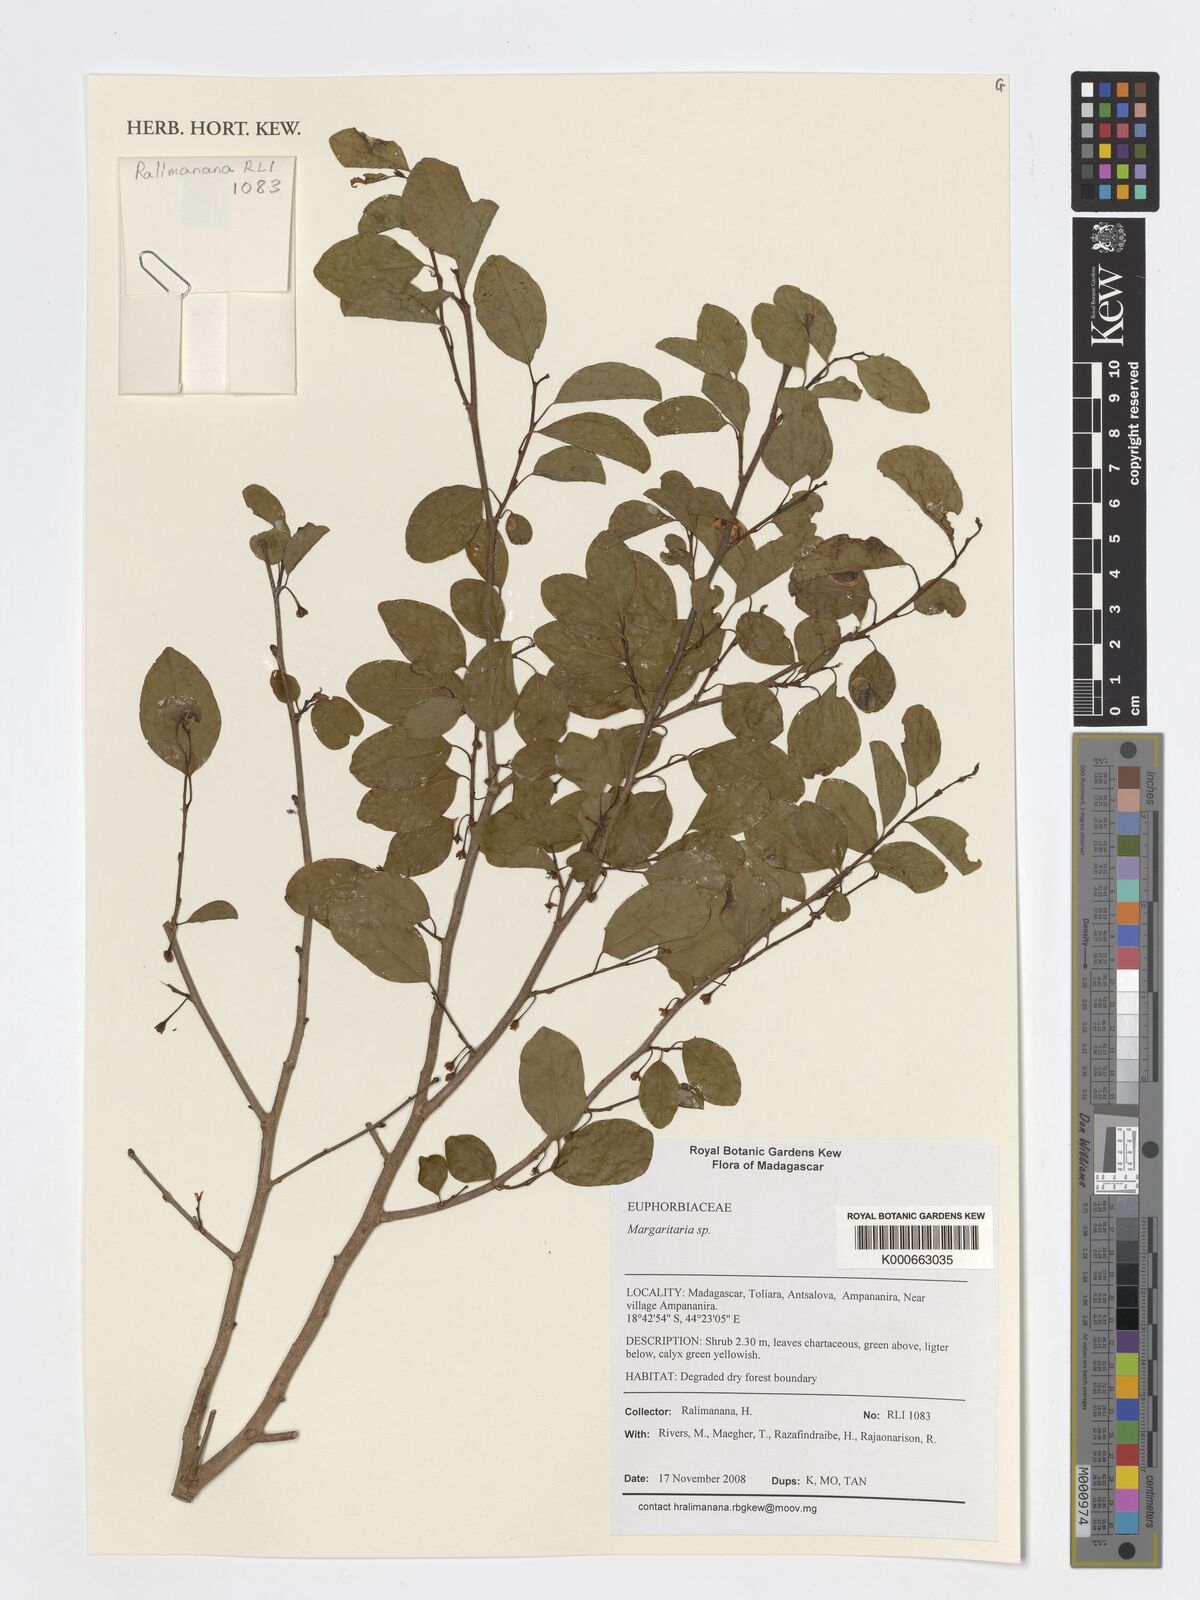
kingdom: Plantae
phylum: Tracheophyta
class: Magnoliopsida
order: Malpighiales
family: Phyllanthaceae
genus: Margaritaria
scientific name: Margaritaria
